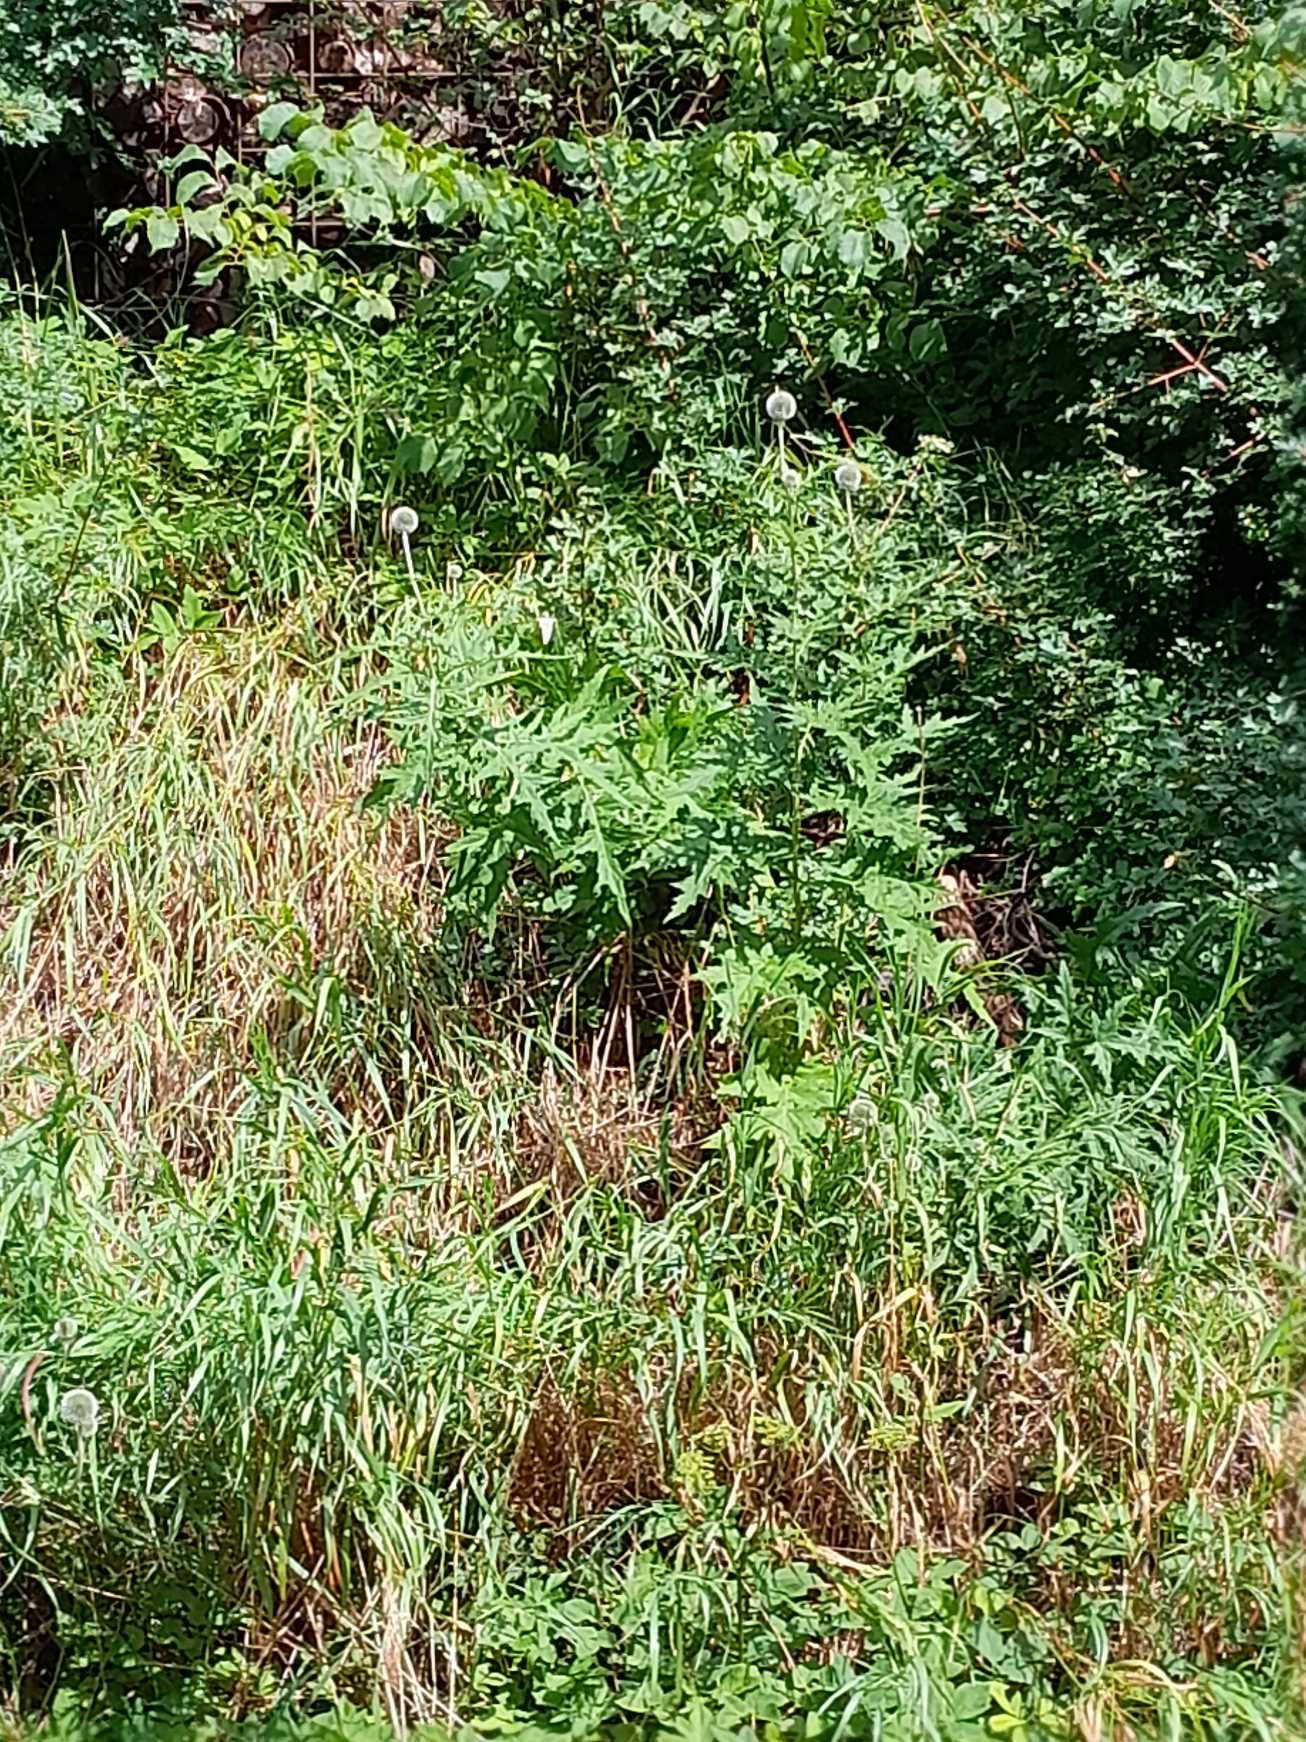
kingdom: Plantae
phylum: Tracheophyta
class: Magnoliopsida
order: Asterales
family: Asteraceae
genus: Echinops
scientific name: Echinops exaltatus
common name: Høj tidselkugle
